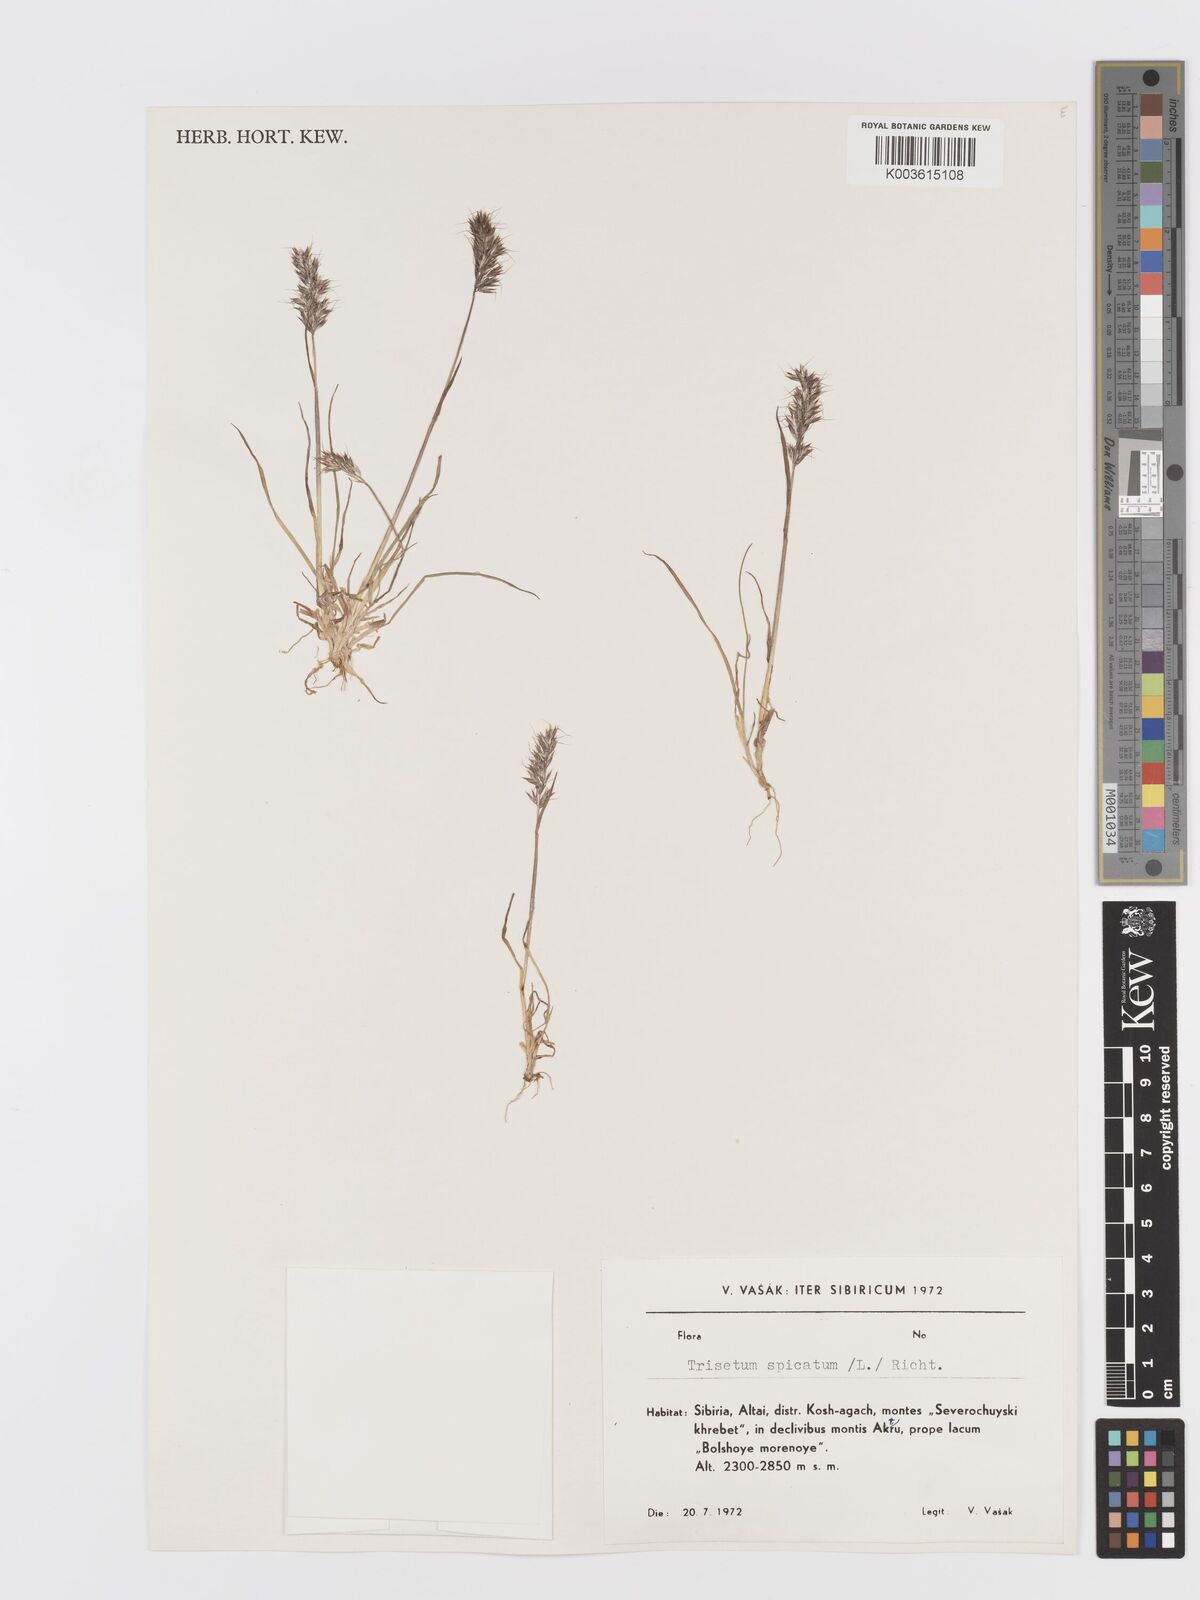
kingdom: Plantae
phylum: Tracheophyta
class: Liliopsida
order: Poales
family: Poaceae
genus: Koeleria
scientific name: Koeleria spicata
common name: Mountain trisetum
